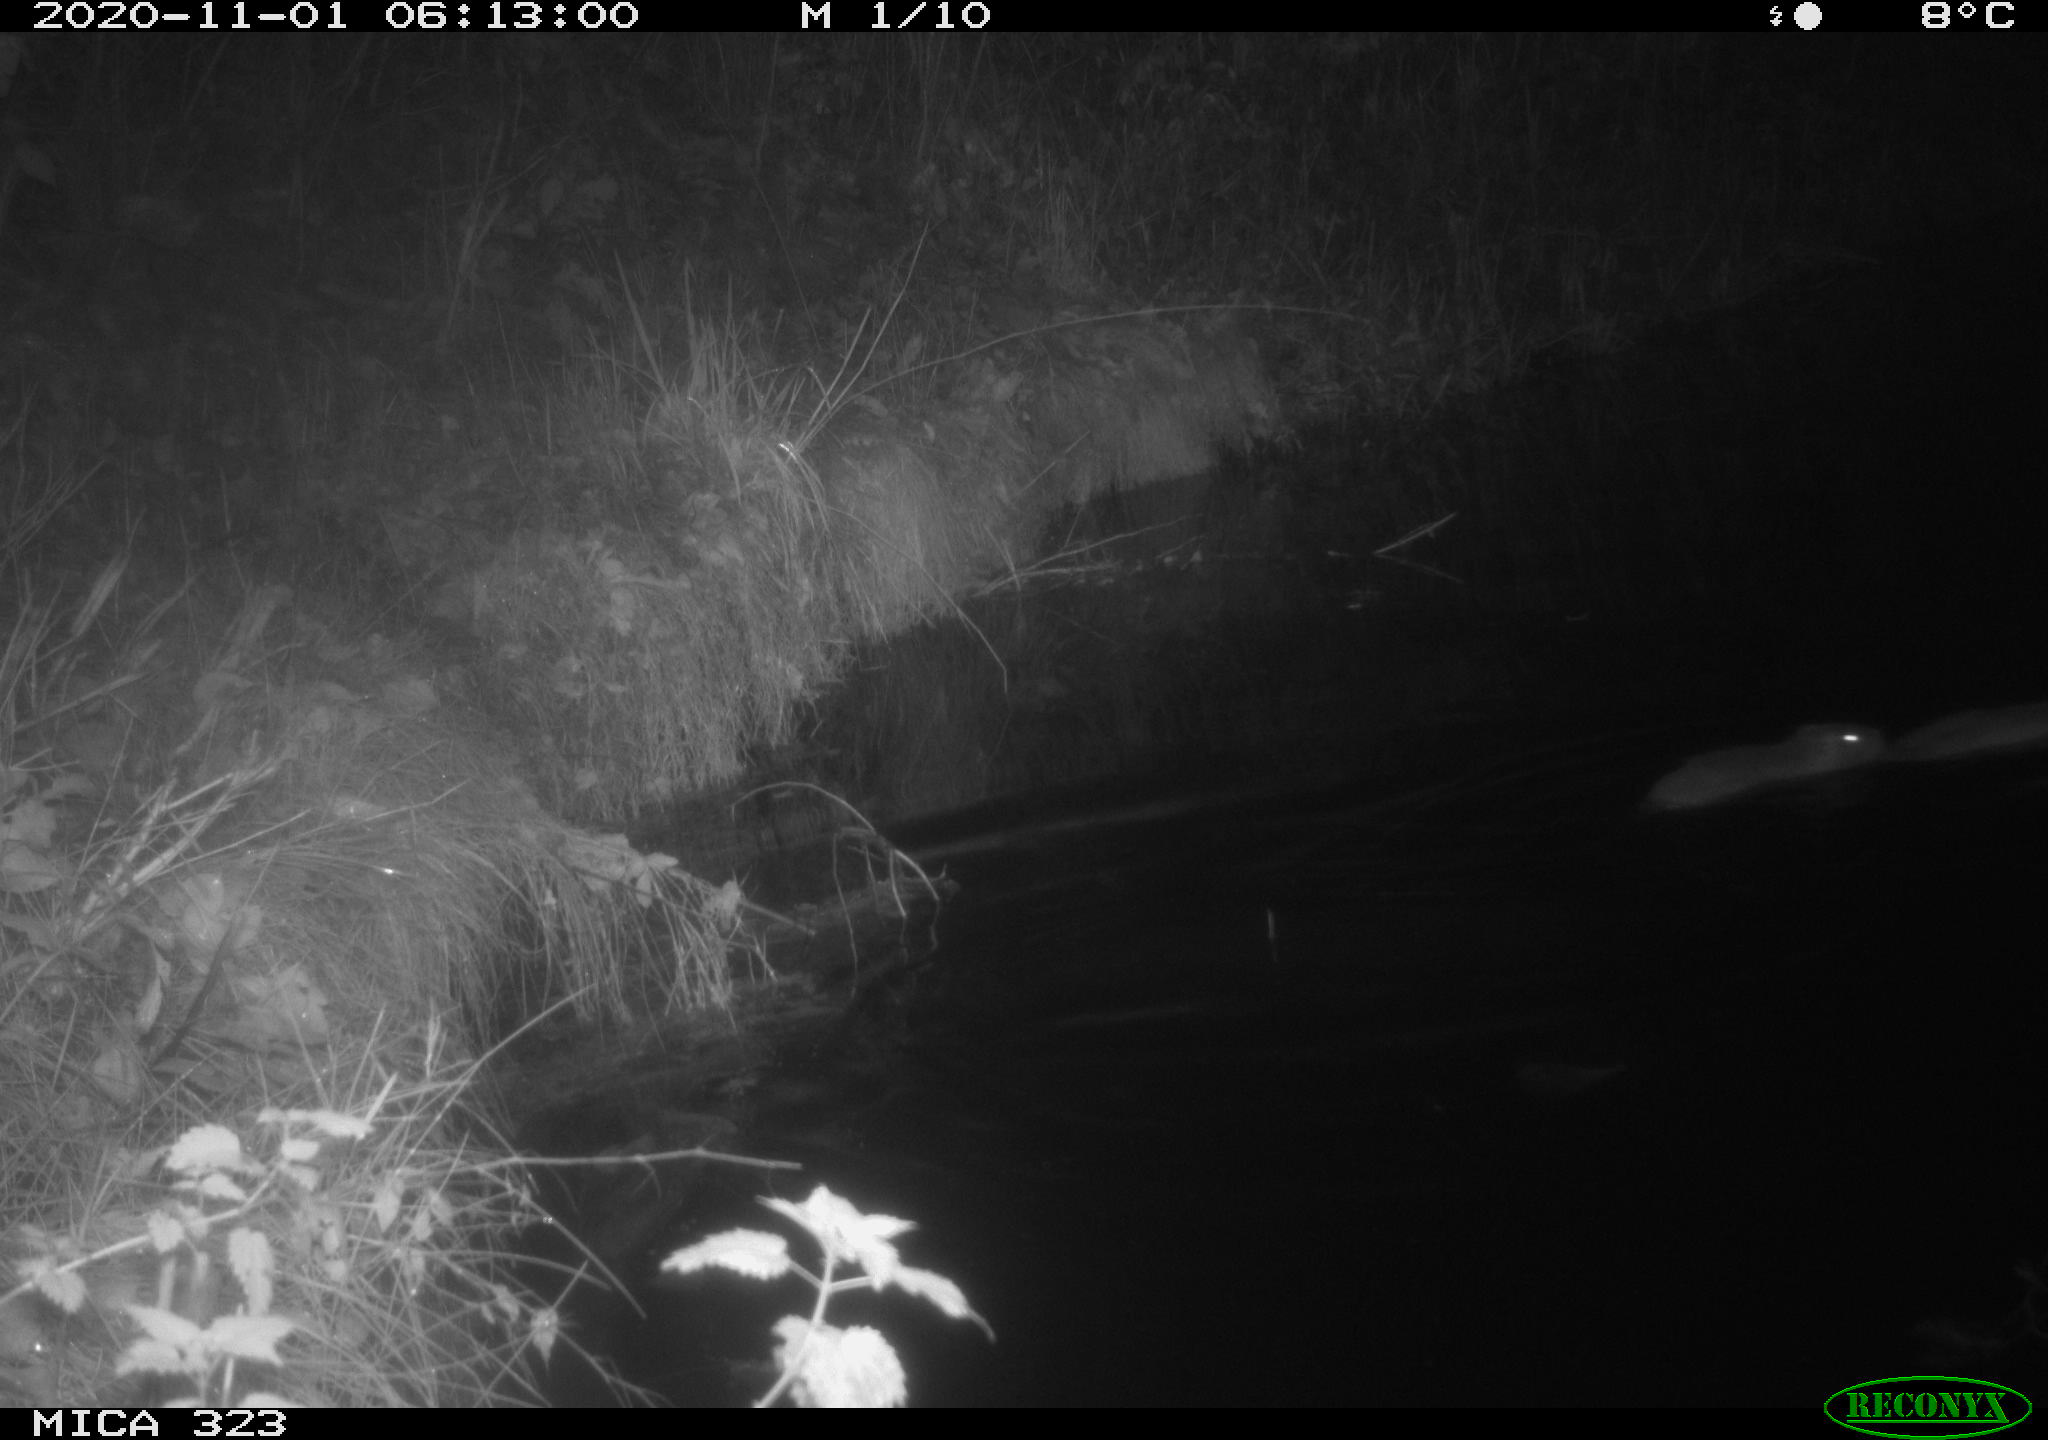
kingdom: Animalia
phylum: Chordata
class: Mammalia
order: Rodentia
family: Myocastoridae
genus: Myocastor
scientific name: Myocastor coypus
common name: Coypu
